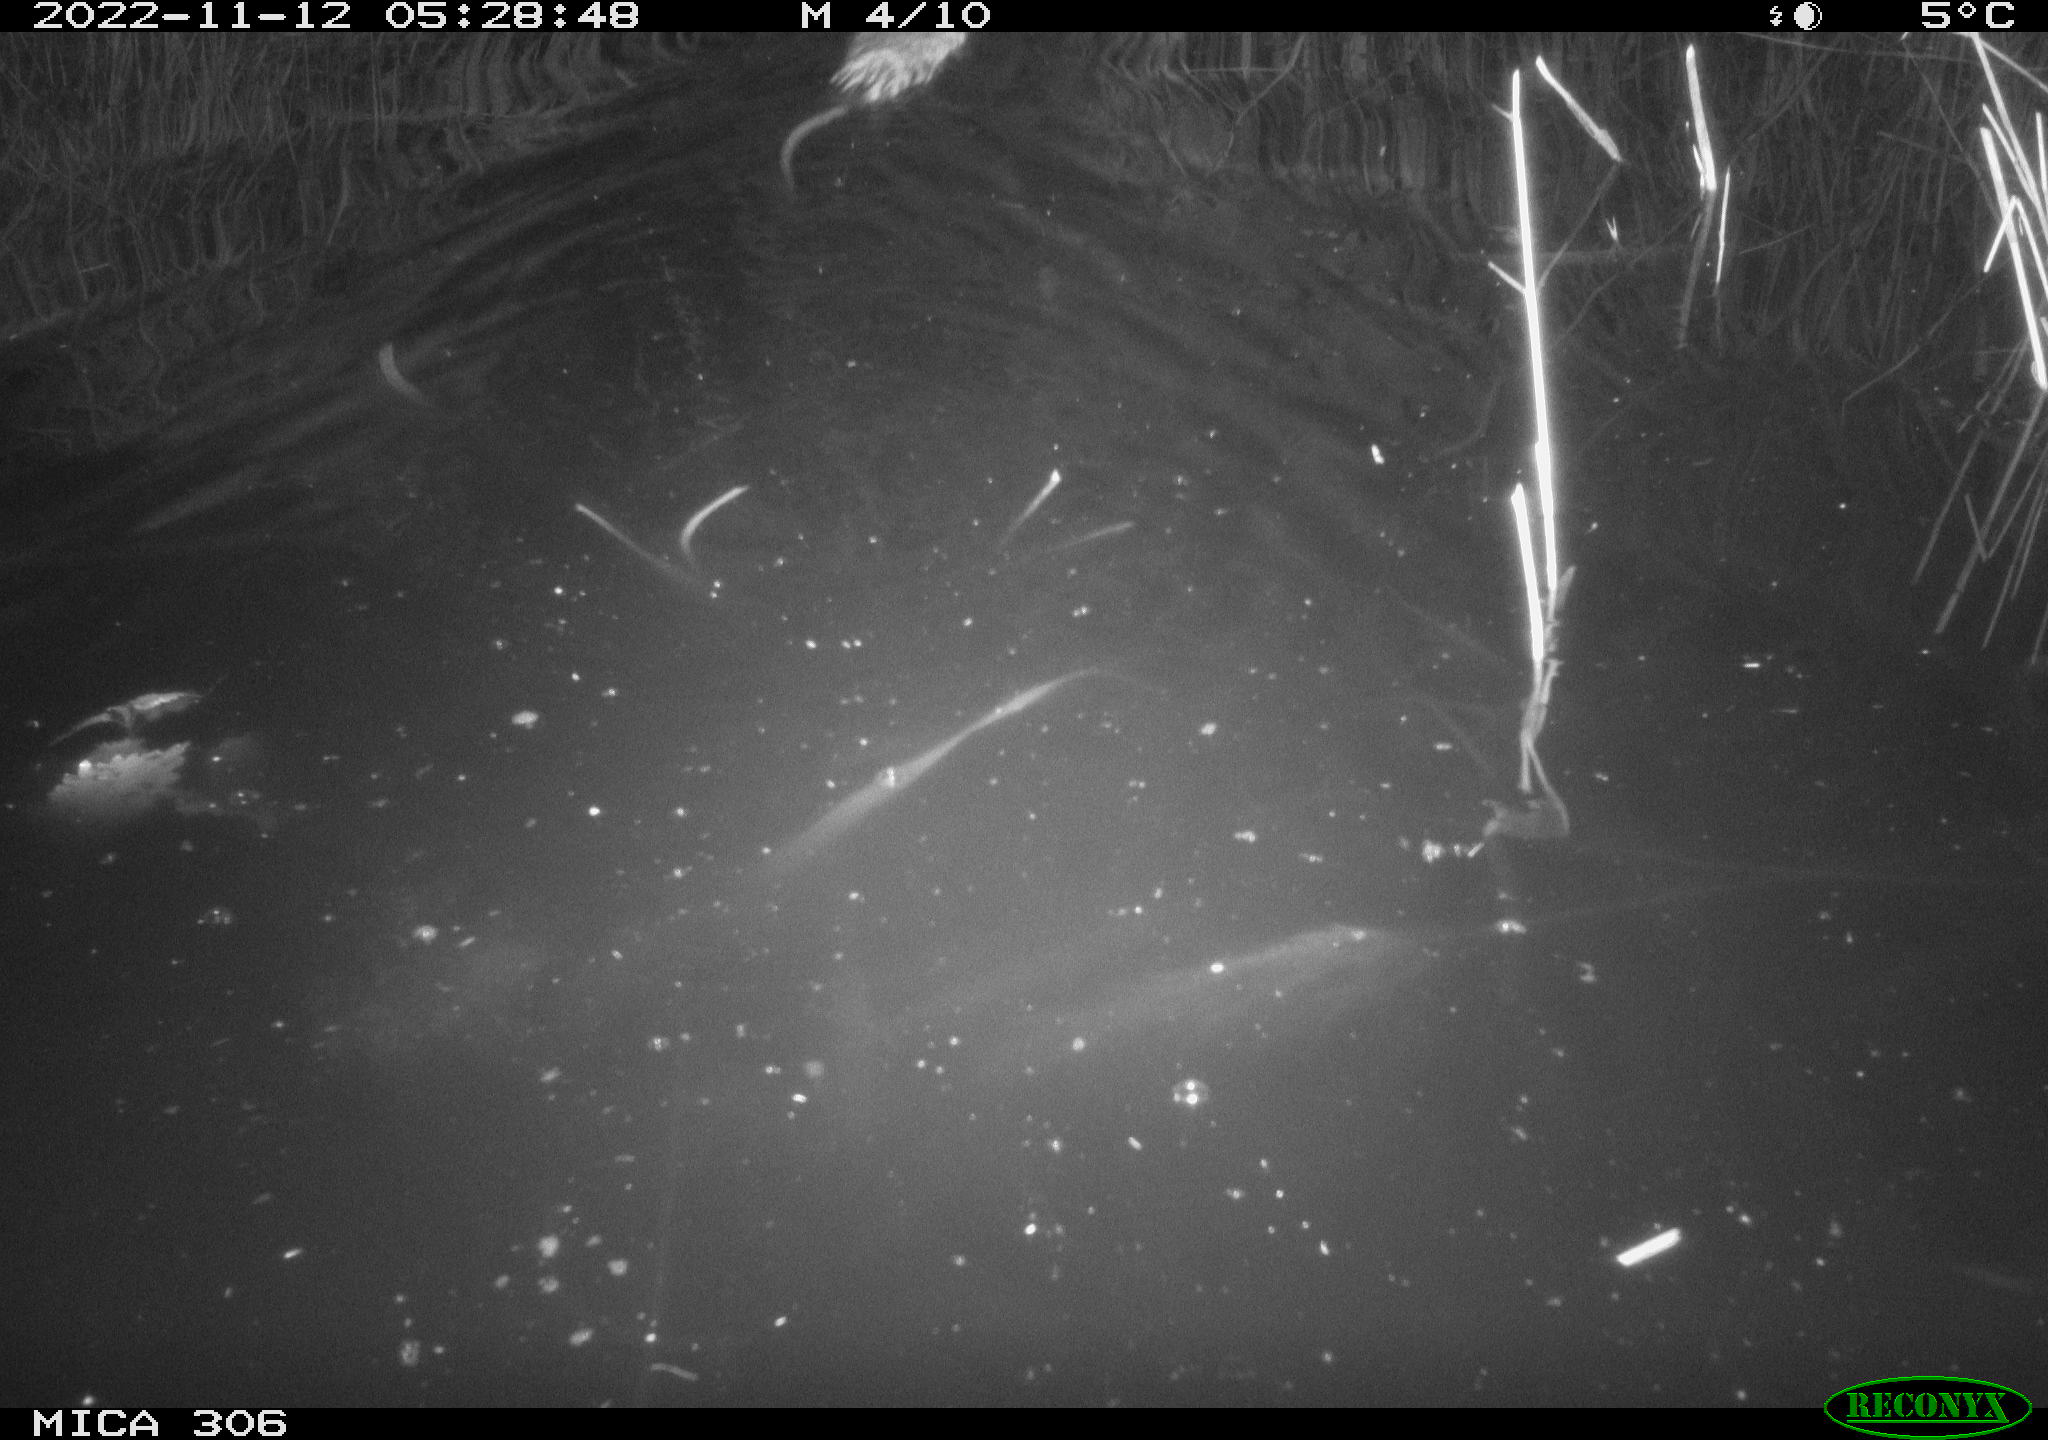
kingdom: Animalia
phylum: Chordata
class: Mammalia
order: Rodentia
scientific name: Rodentia
